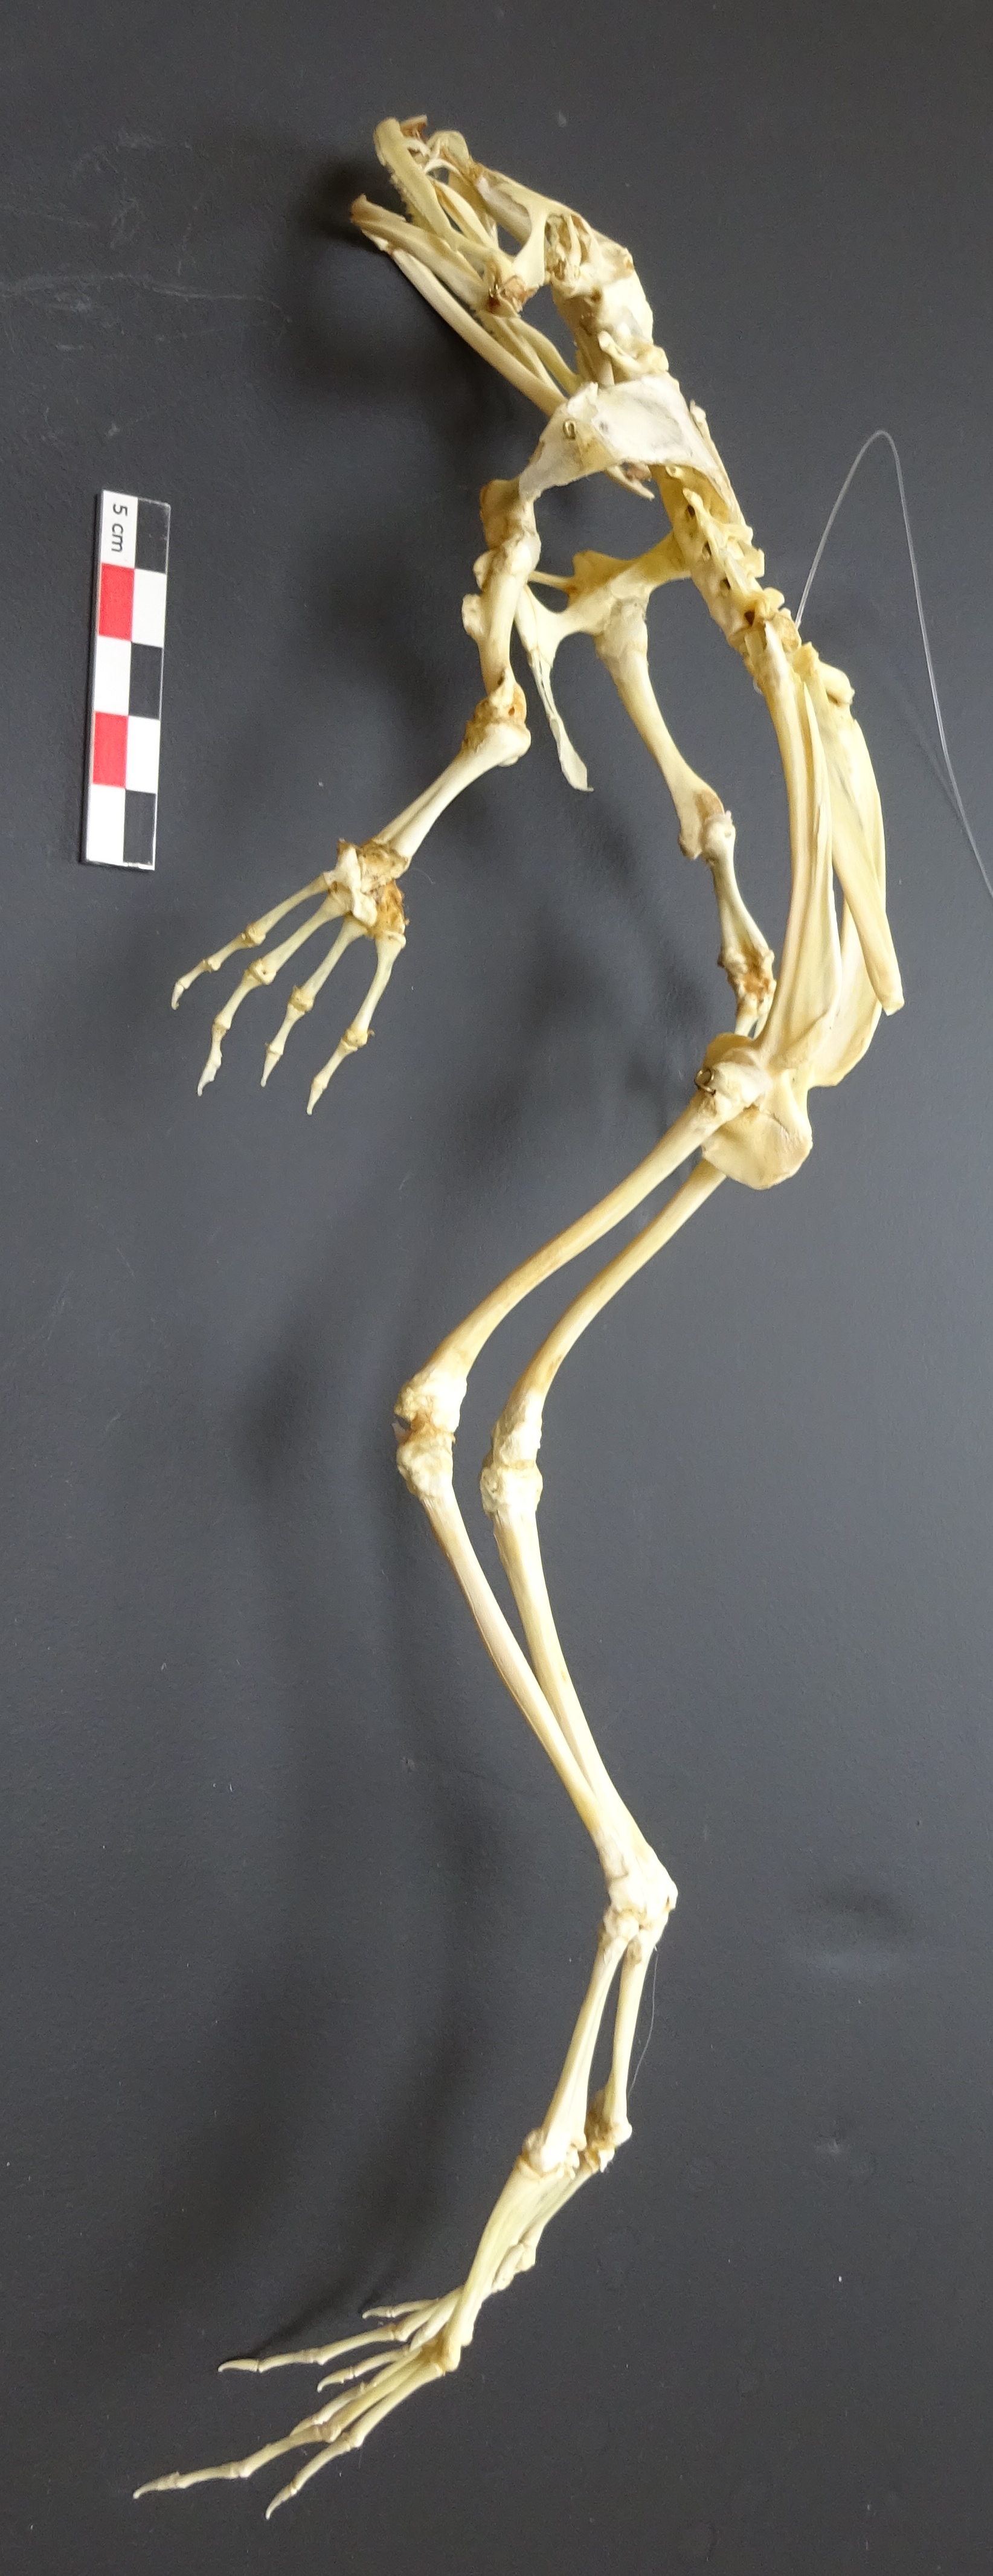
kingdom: Animalia
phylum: Chordata
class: Amphibia
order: Anura
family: Ranidae
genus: Lithobates
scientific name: Lithobates catesbeianus
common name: American bullfrog
